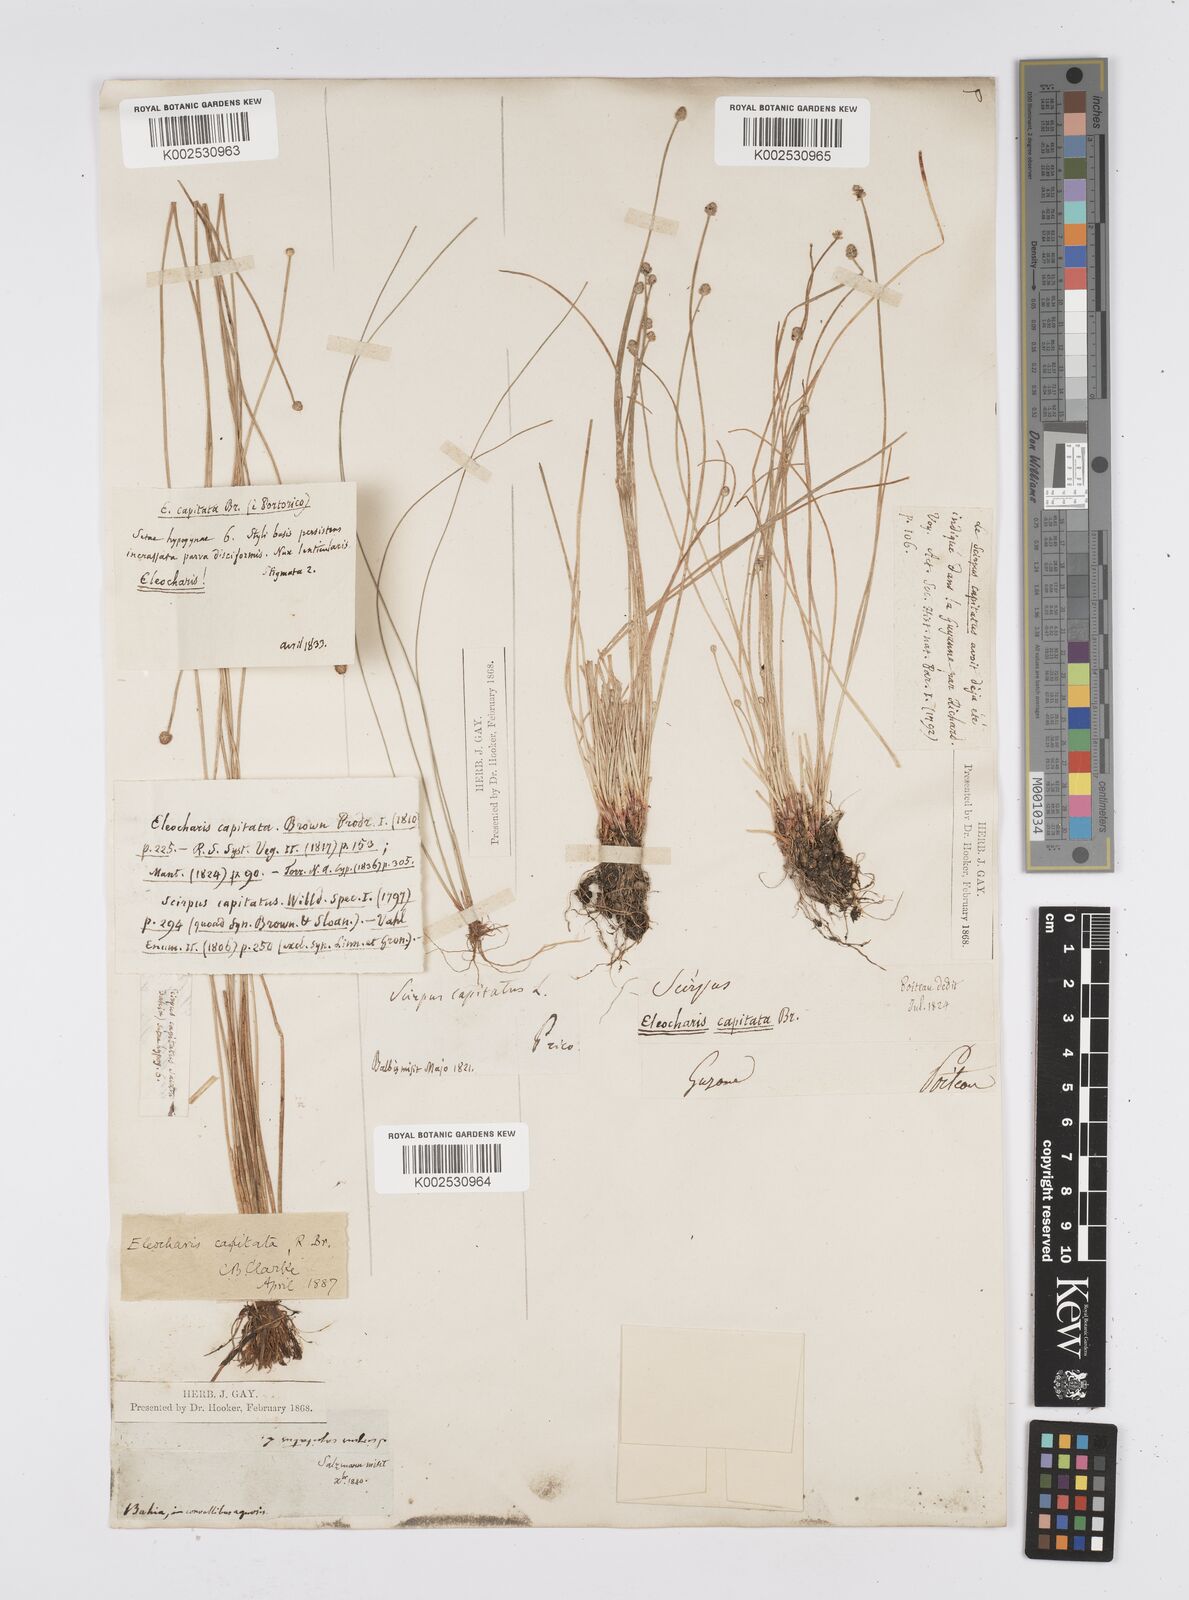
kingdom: Plantae
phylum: Tracheophyta
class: Liliopsida
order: Poales
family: Cyperaceae
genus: Eleocharis
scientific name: Eleocharis geniculata
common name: Canada spikesedge
